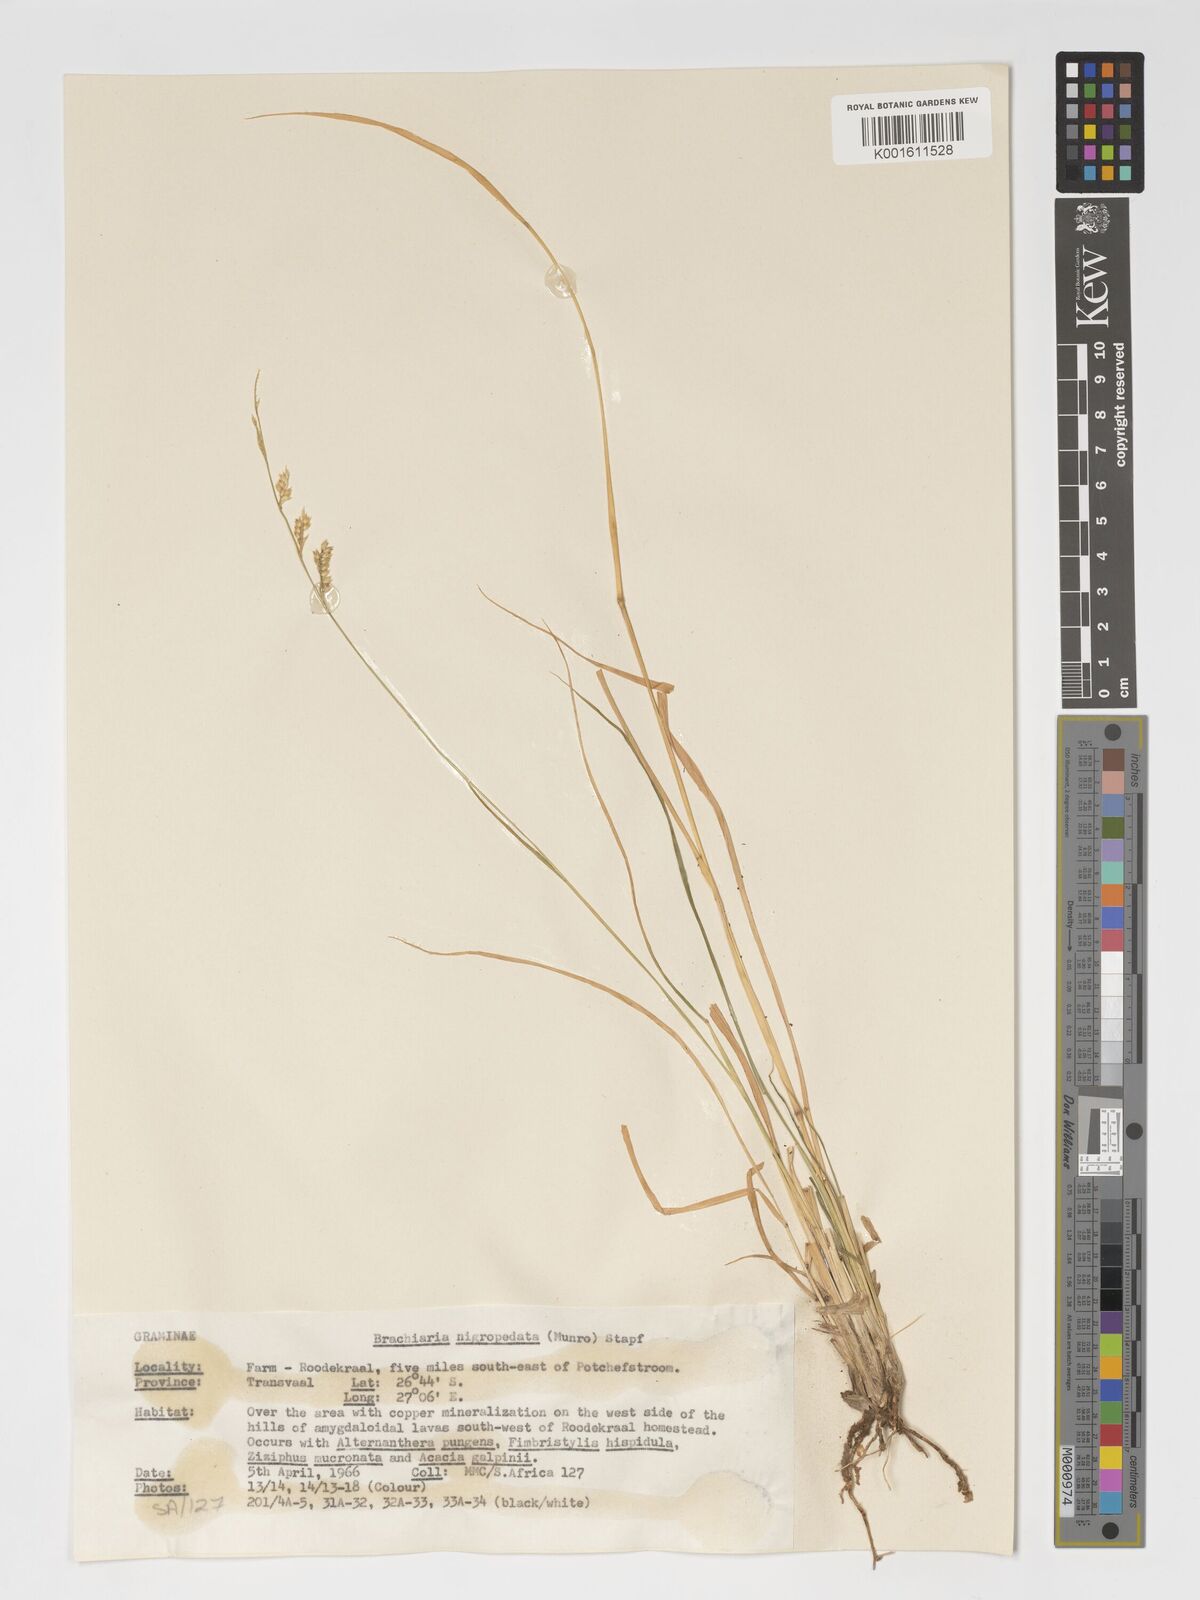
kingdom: Plantae
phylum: Tracheophyta
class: Liliopsida
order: Poales
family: Poaceae
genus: Urochloa
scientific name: Urochloa nigropedata
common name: Spotted signal grass
